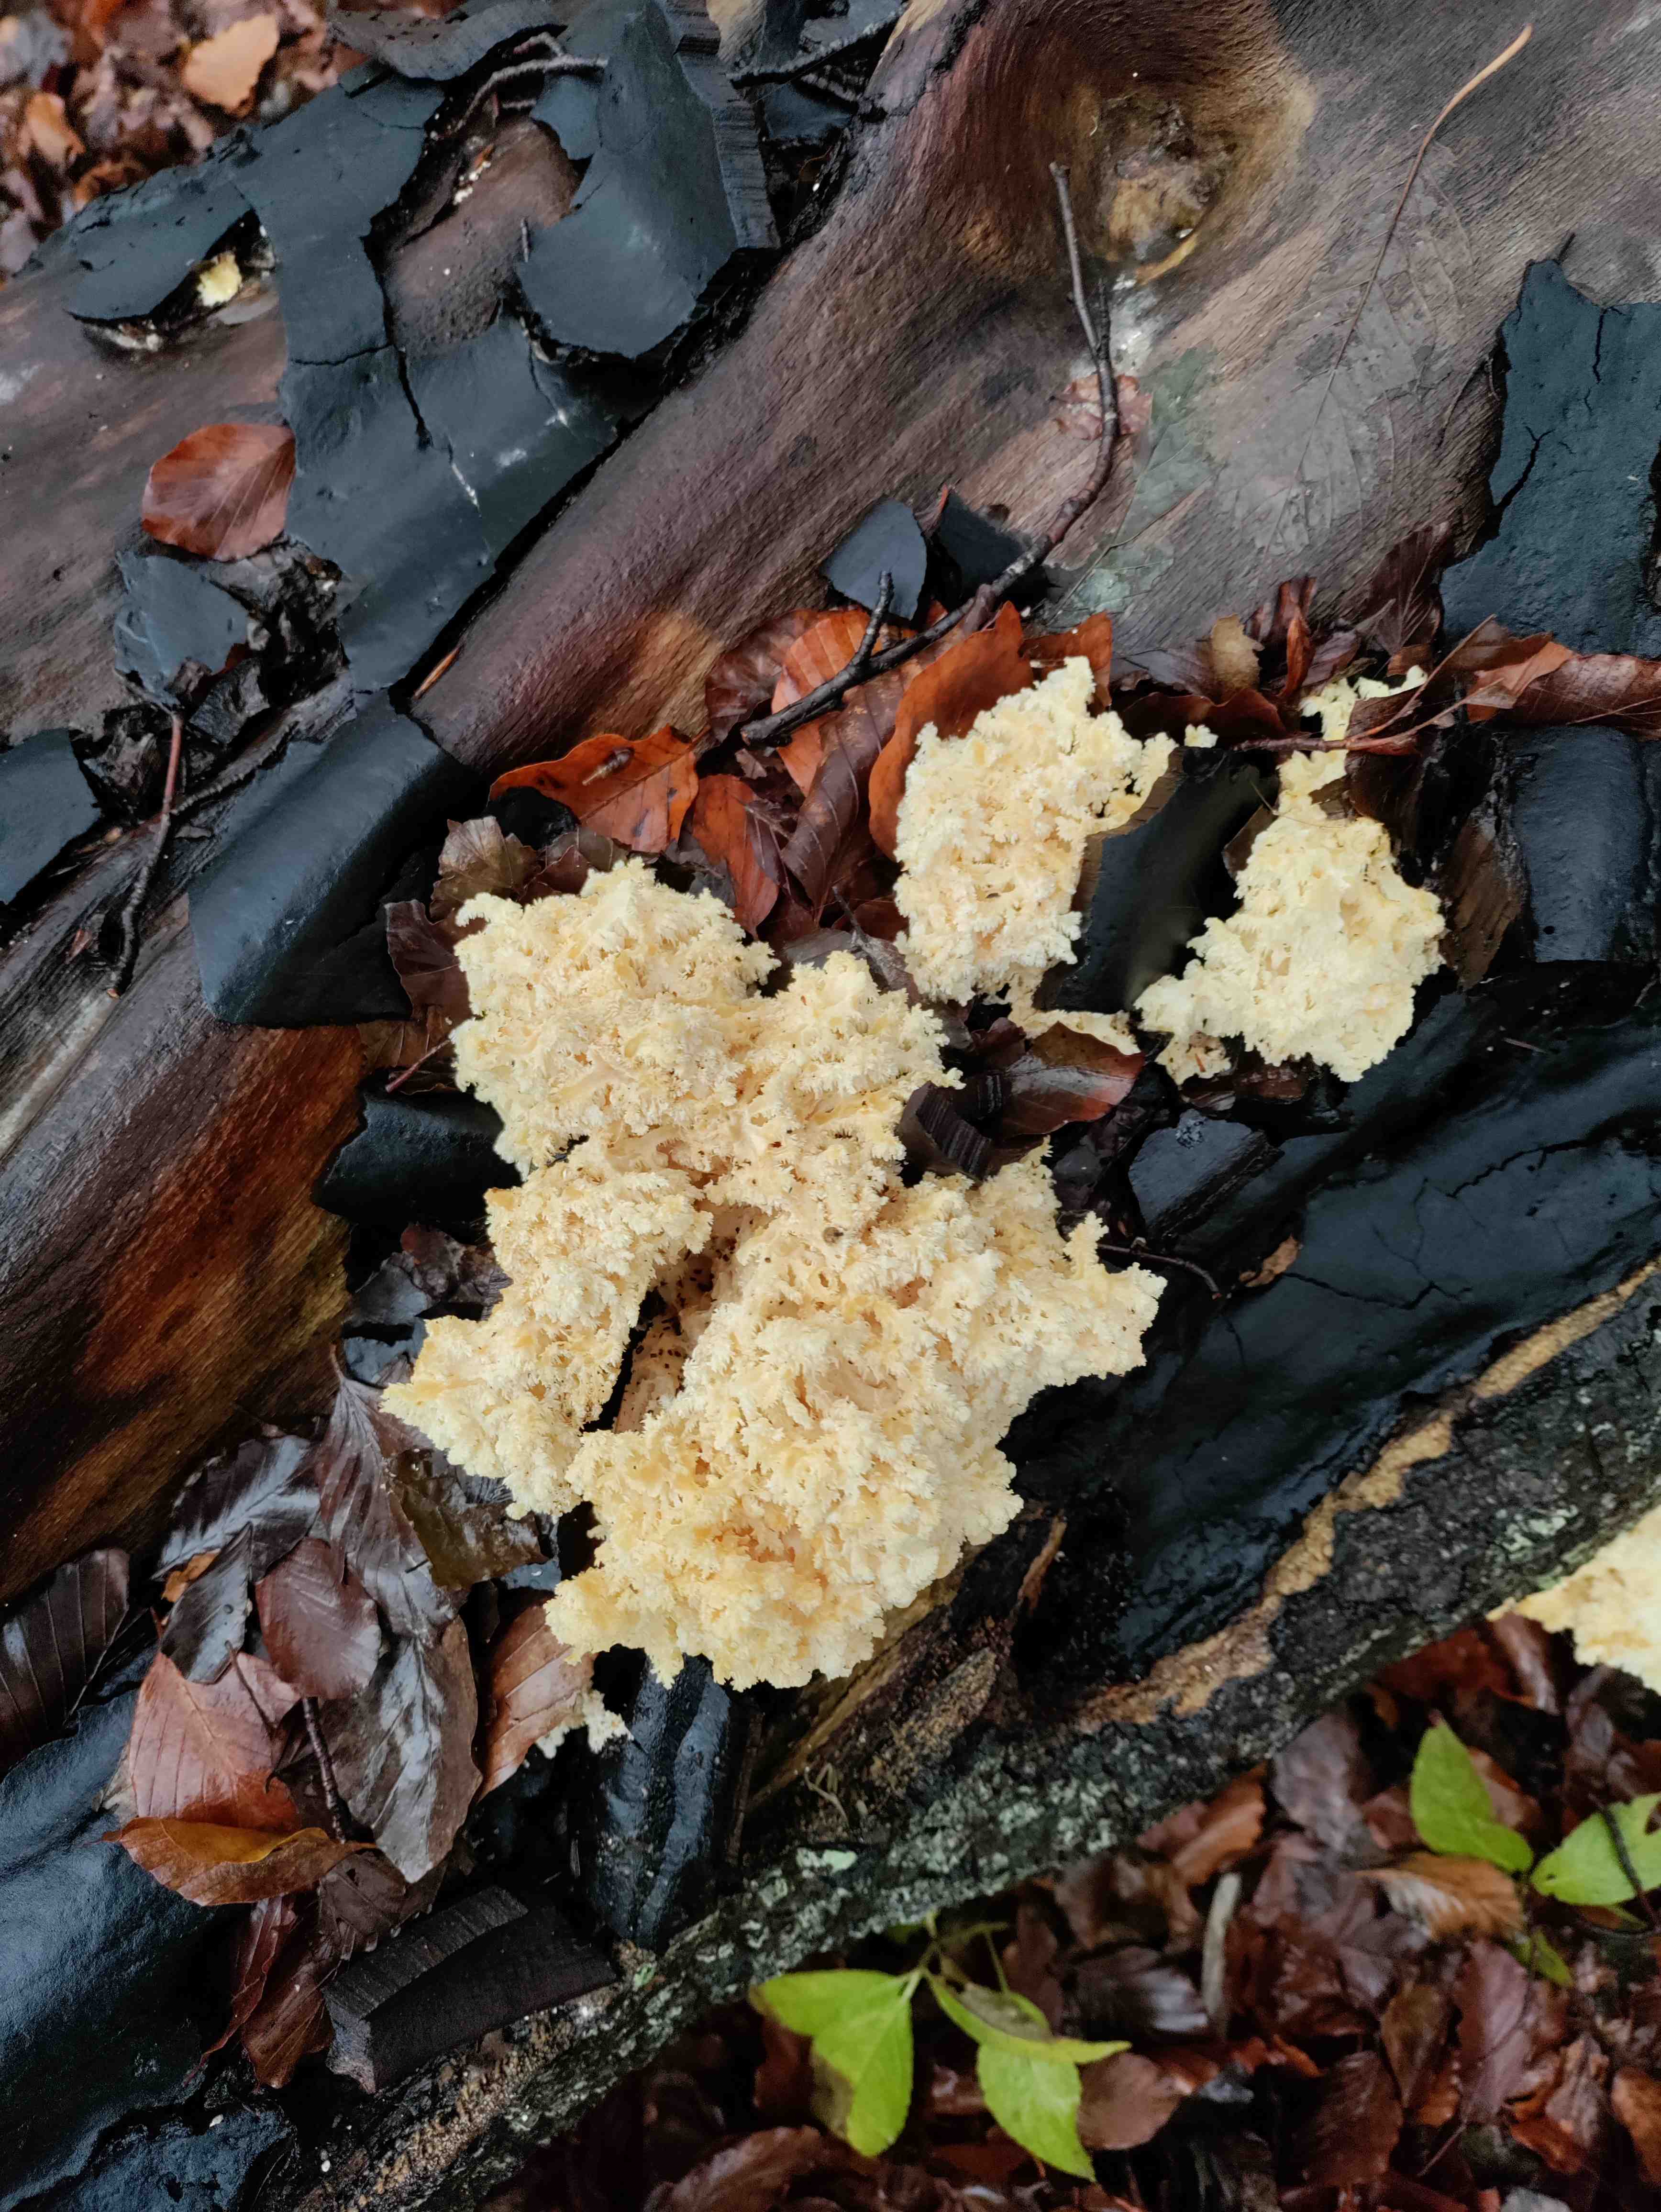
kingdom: Fungi
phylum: Basidiomycota
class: Agaricomycetes
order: Russulales
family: Hericiaceae
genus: Hericium
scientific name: Hericium coralloides
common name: koralpigsvamp
